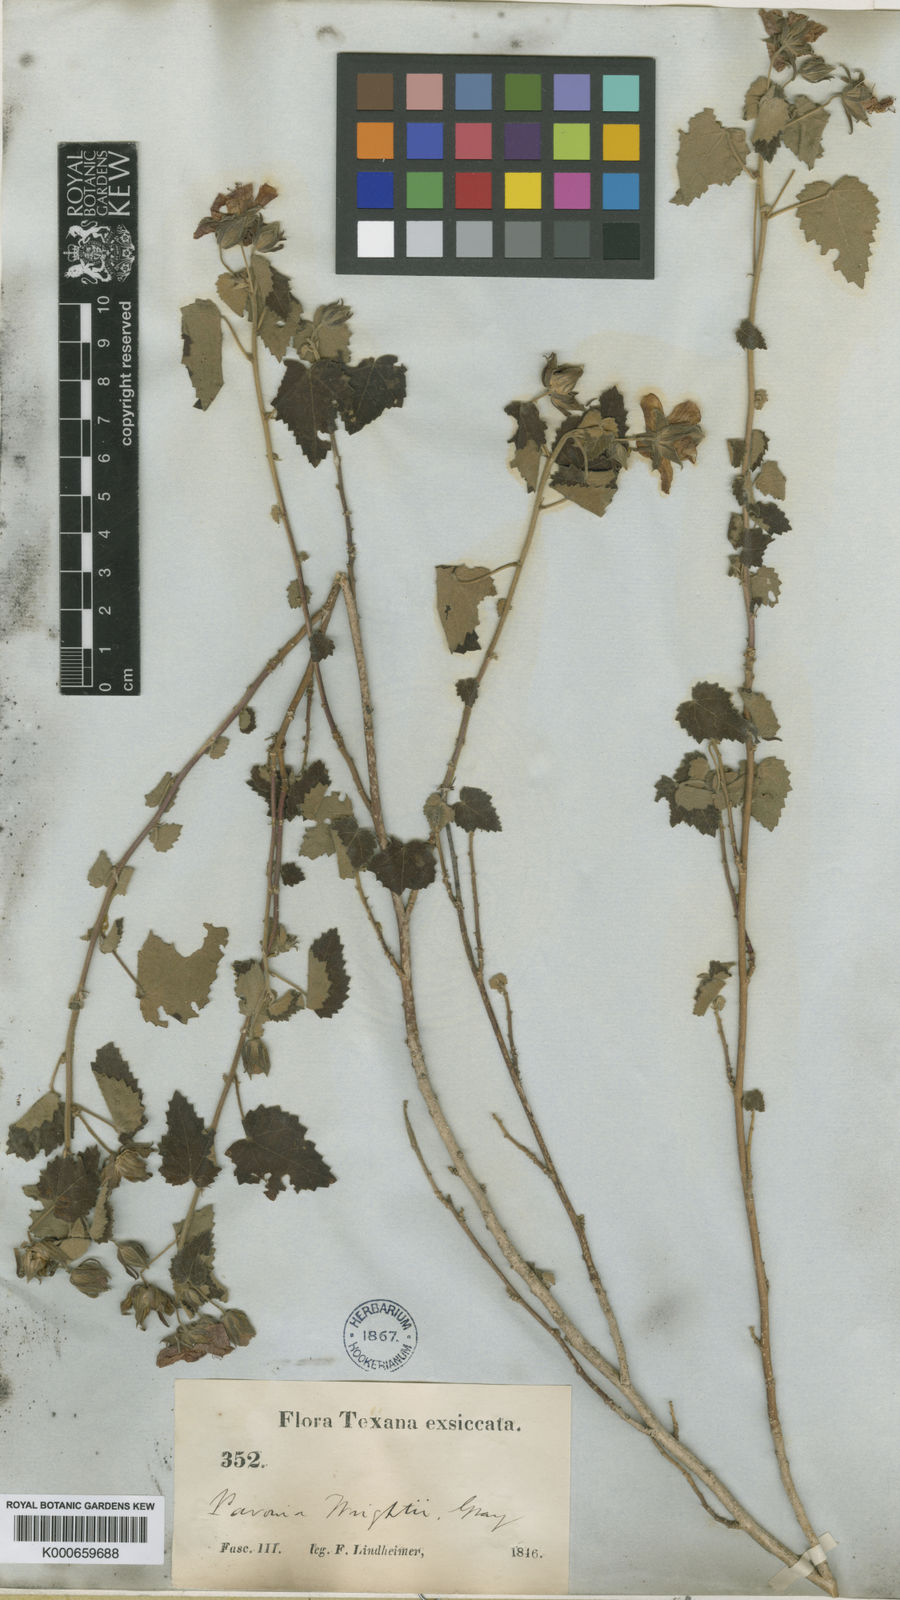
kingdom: Plantae
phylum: Tracheophyta
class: Magnoliopsida
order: Malvales
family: Malvaceae
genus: Pavonia
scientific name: Pavonia lasiopetala
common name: Texas swamp-mallow
